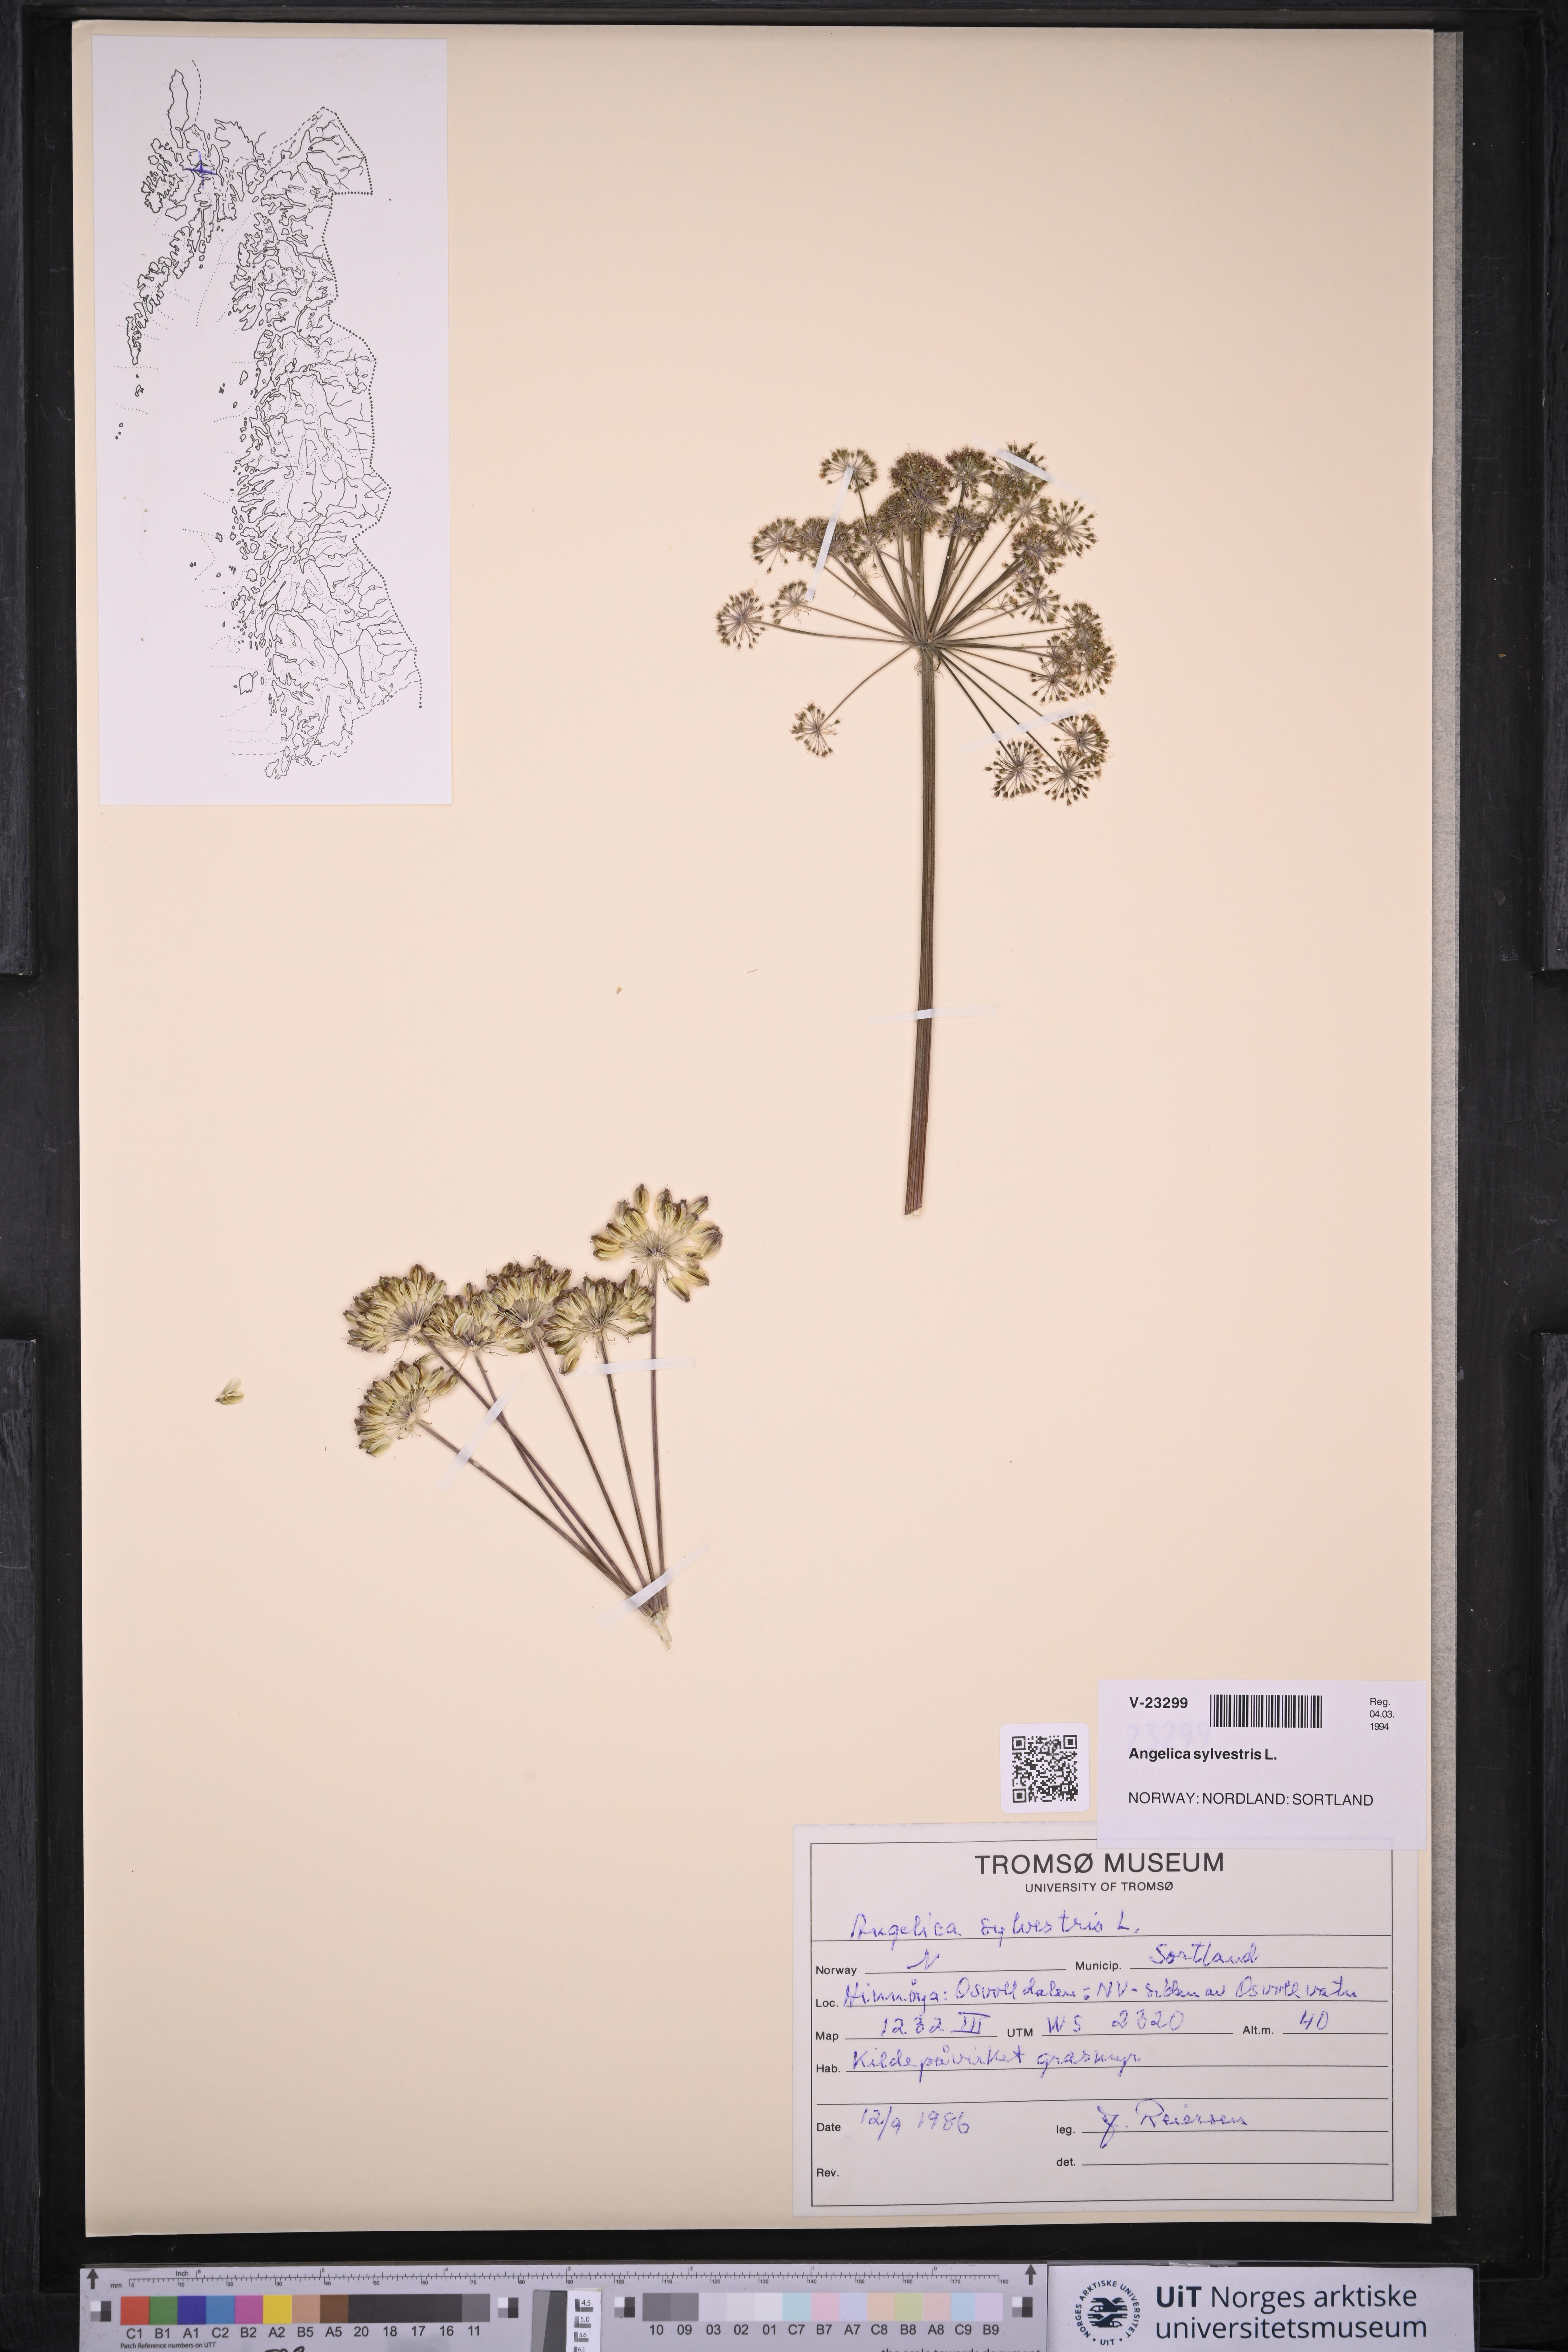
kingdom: Plantae
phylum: Tracheophyta
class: Magnoliopsida
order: Apiales
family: Apiaceae
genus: Angelica
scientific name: Angelica sylvestris
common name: Wild angelica
